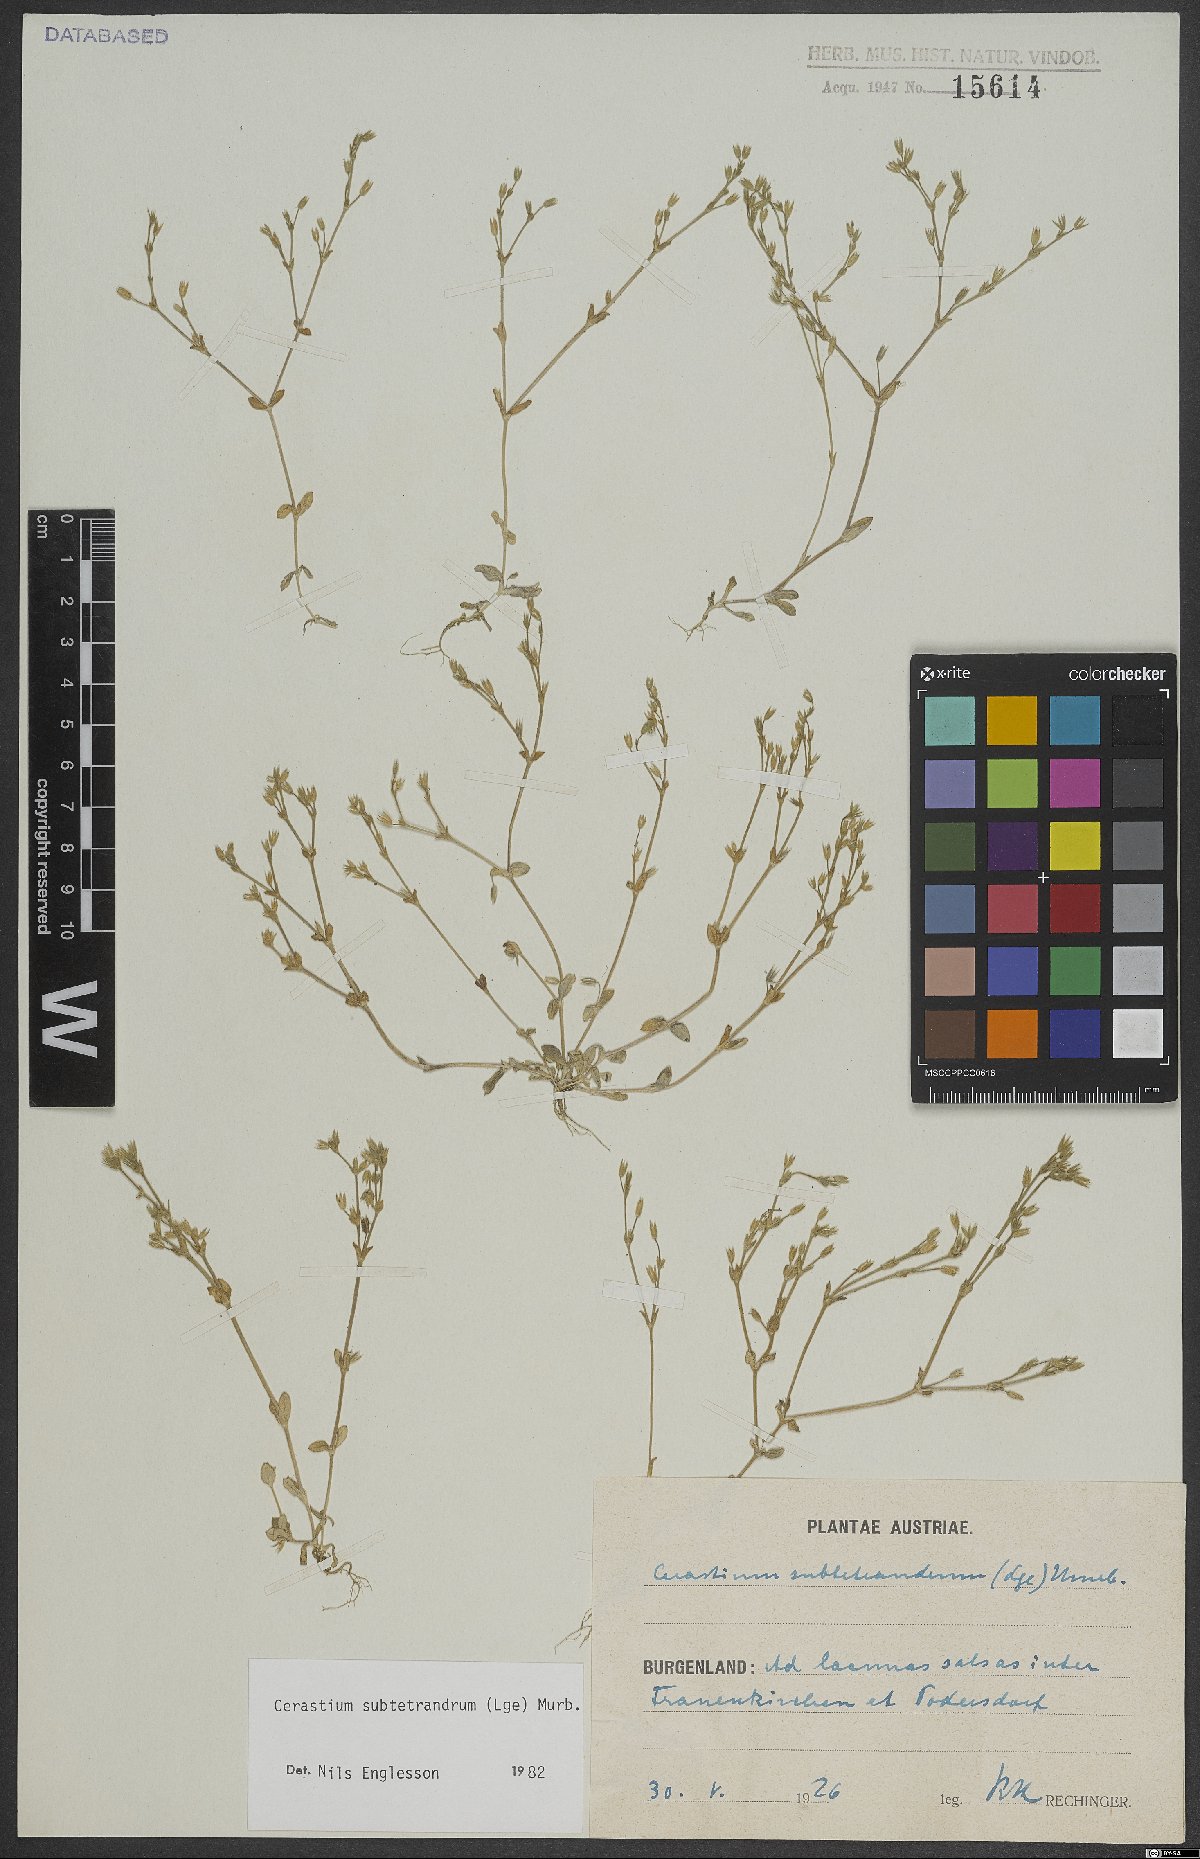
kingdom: Plantae
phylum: Tracheophyta
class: Magnoliopsida
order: Caryophyllales
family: Caryophyllaceae
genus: Cerastium
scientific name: Cerastium pumilum
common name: Dwarf mouse-ear
